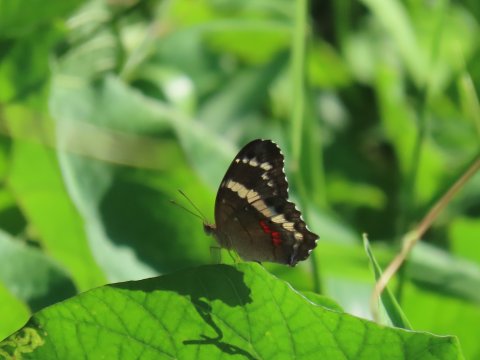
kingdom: Animalia
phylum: Arthropoda
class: Insecta
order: Lepidoptera
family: Nymphalidae
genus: Anartia
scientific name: Anartia fatima
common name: Banded Peacock
